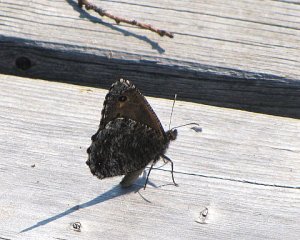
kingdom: Animalia
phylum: Arthropoda
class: Insecta
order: Lepidoptera
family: Nymphalidae
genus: Oeneis
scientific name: Oeneis jutta
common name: Jutta Arctic
